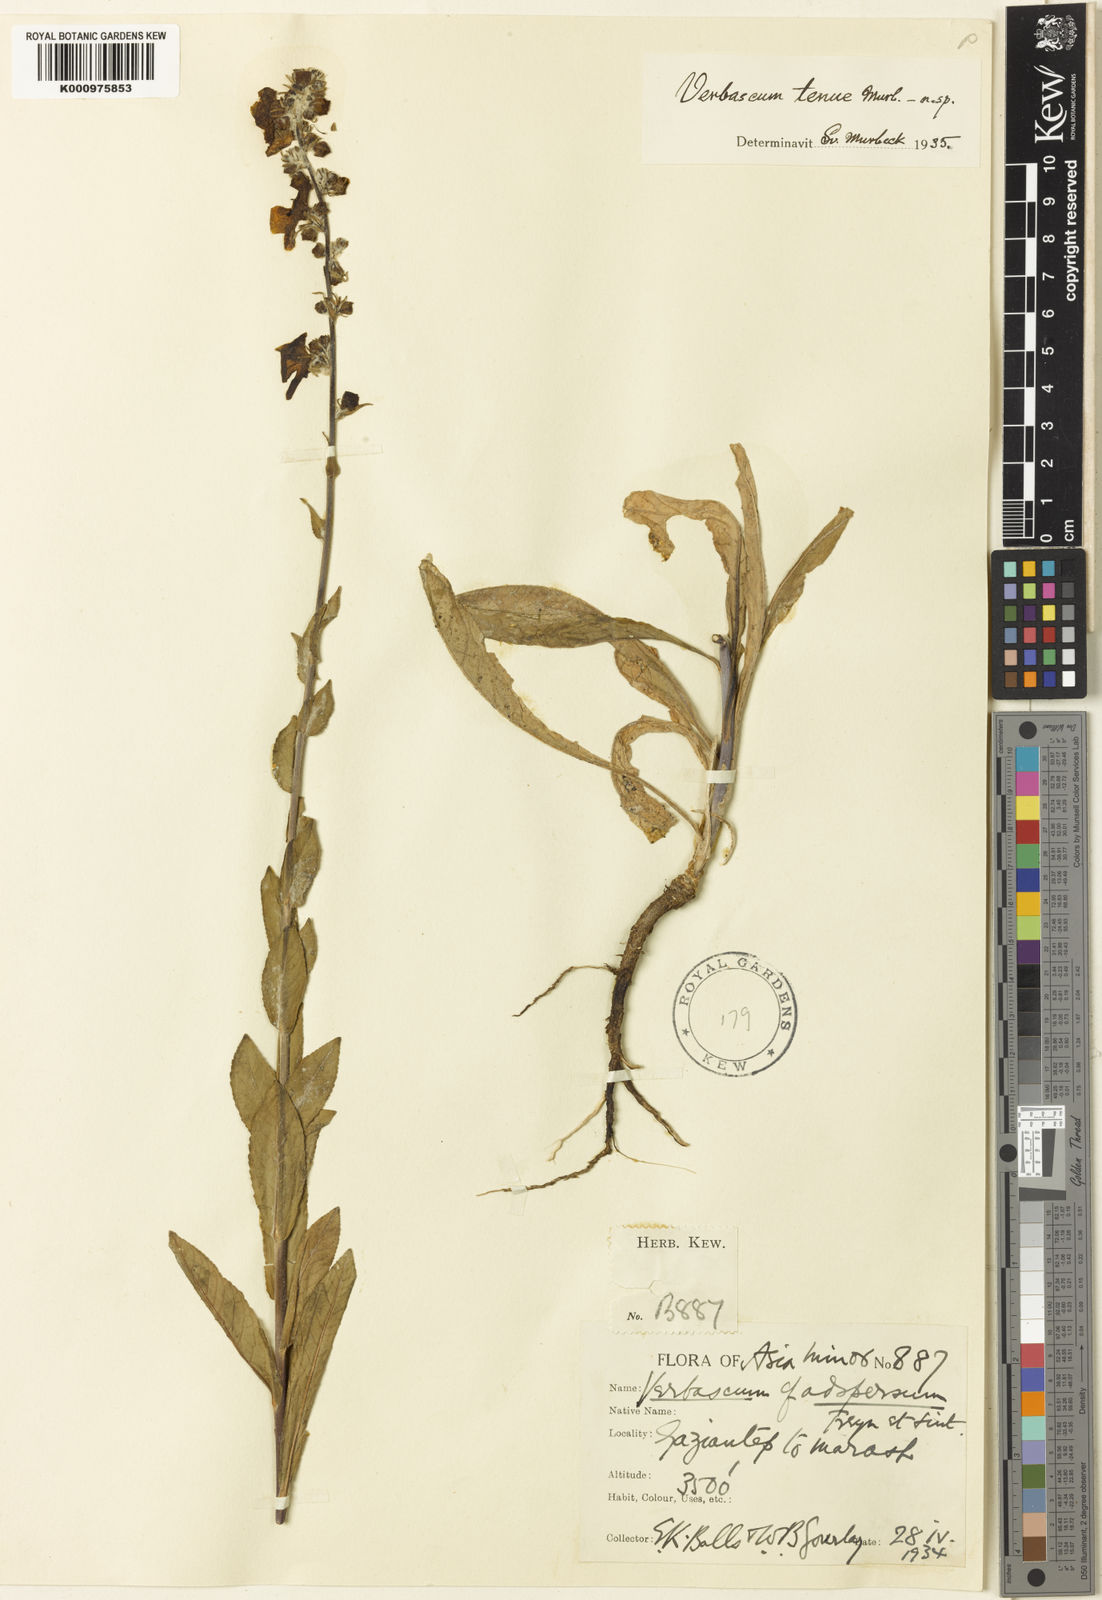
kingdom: Plantae
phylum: Tracheophyta
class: Magnoliopsida
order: Lamiales
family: Scrophulariaceae
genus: Verbascum
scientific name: Verbascum tenue
